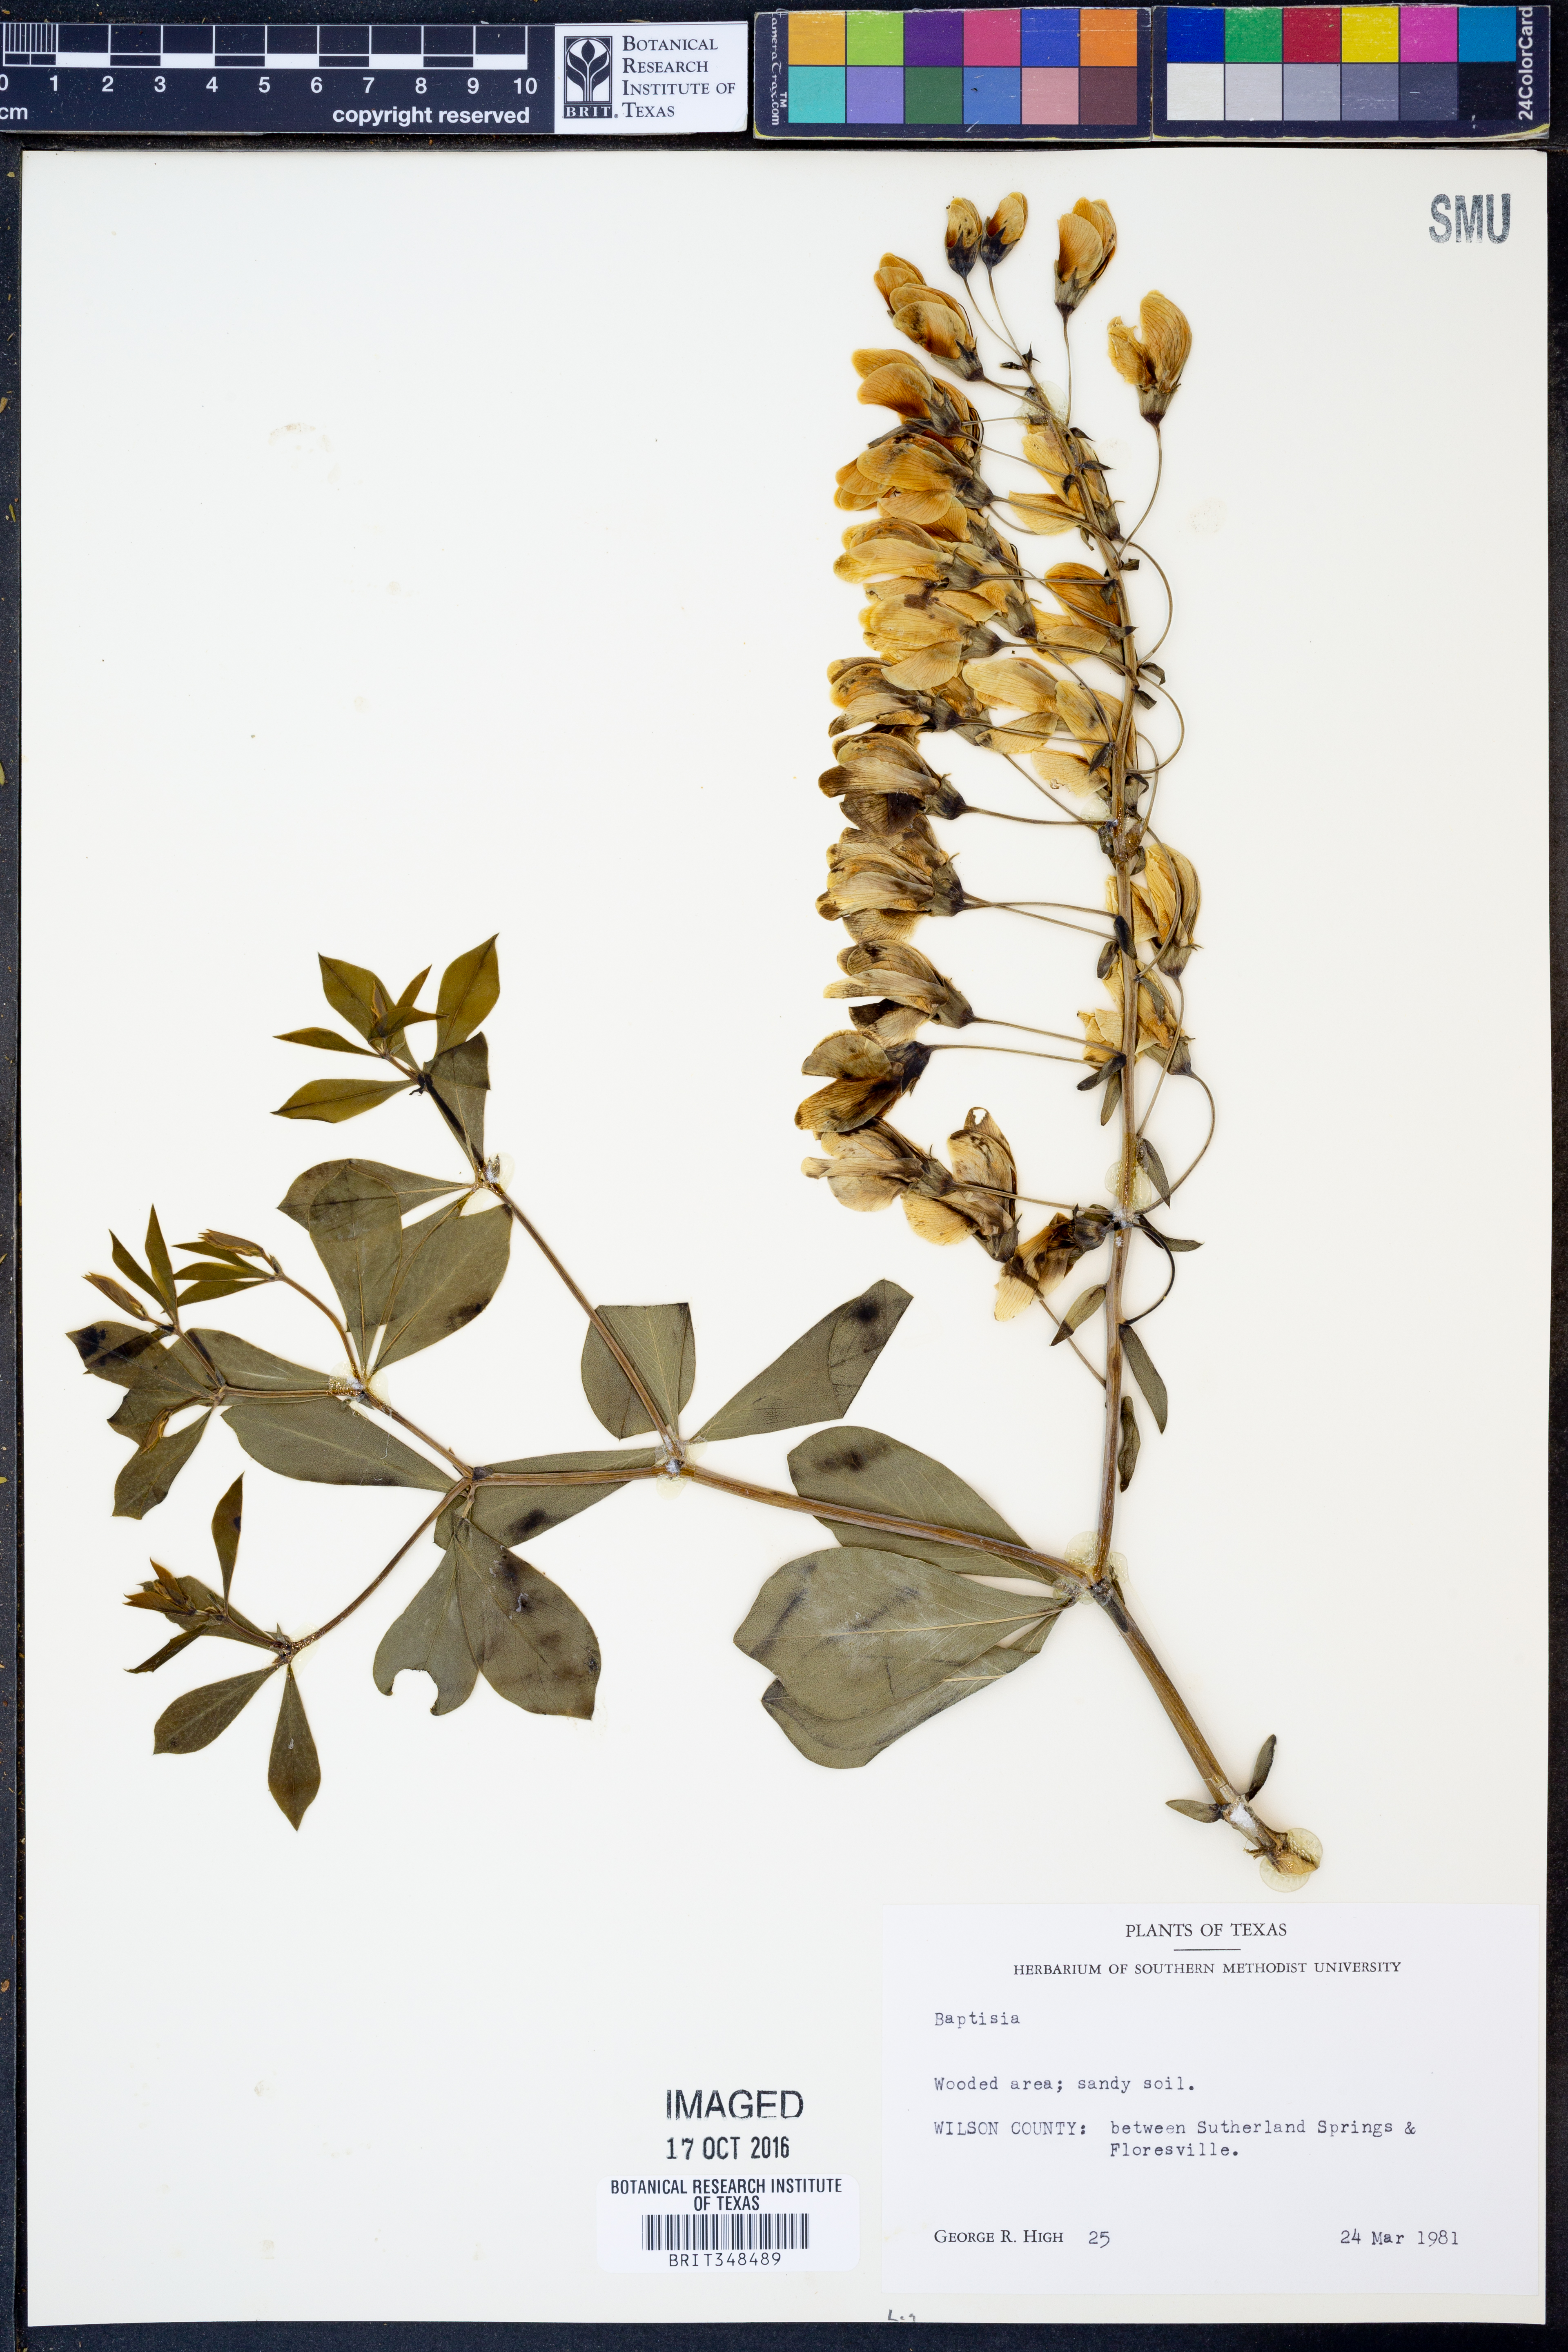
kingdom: Plantae
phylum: Tracheophyta
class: Magnoliopsida
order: Fabales
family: Fabaceae
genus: Baptisia
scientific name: Baptisia
